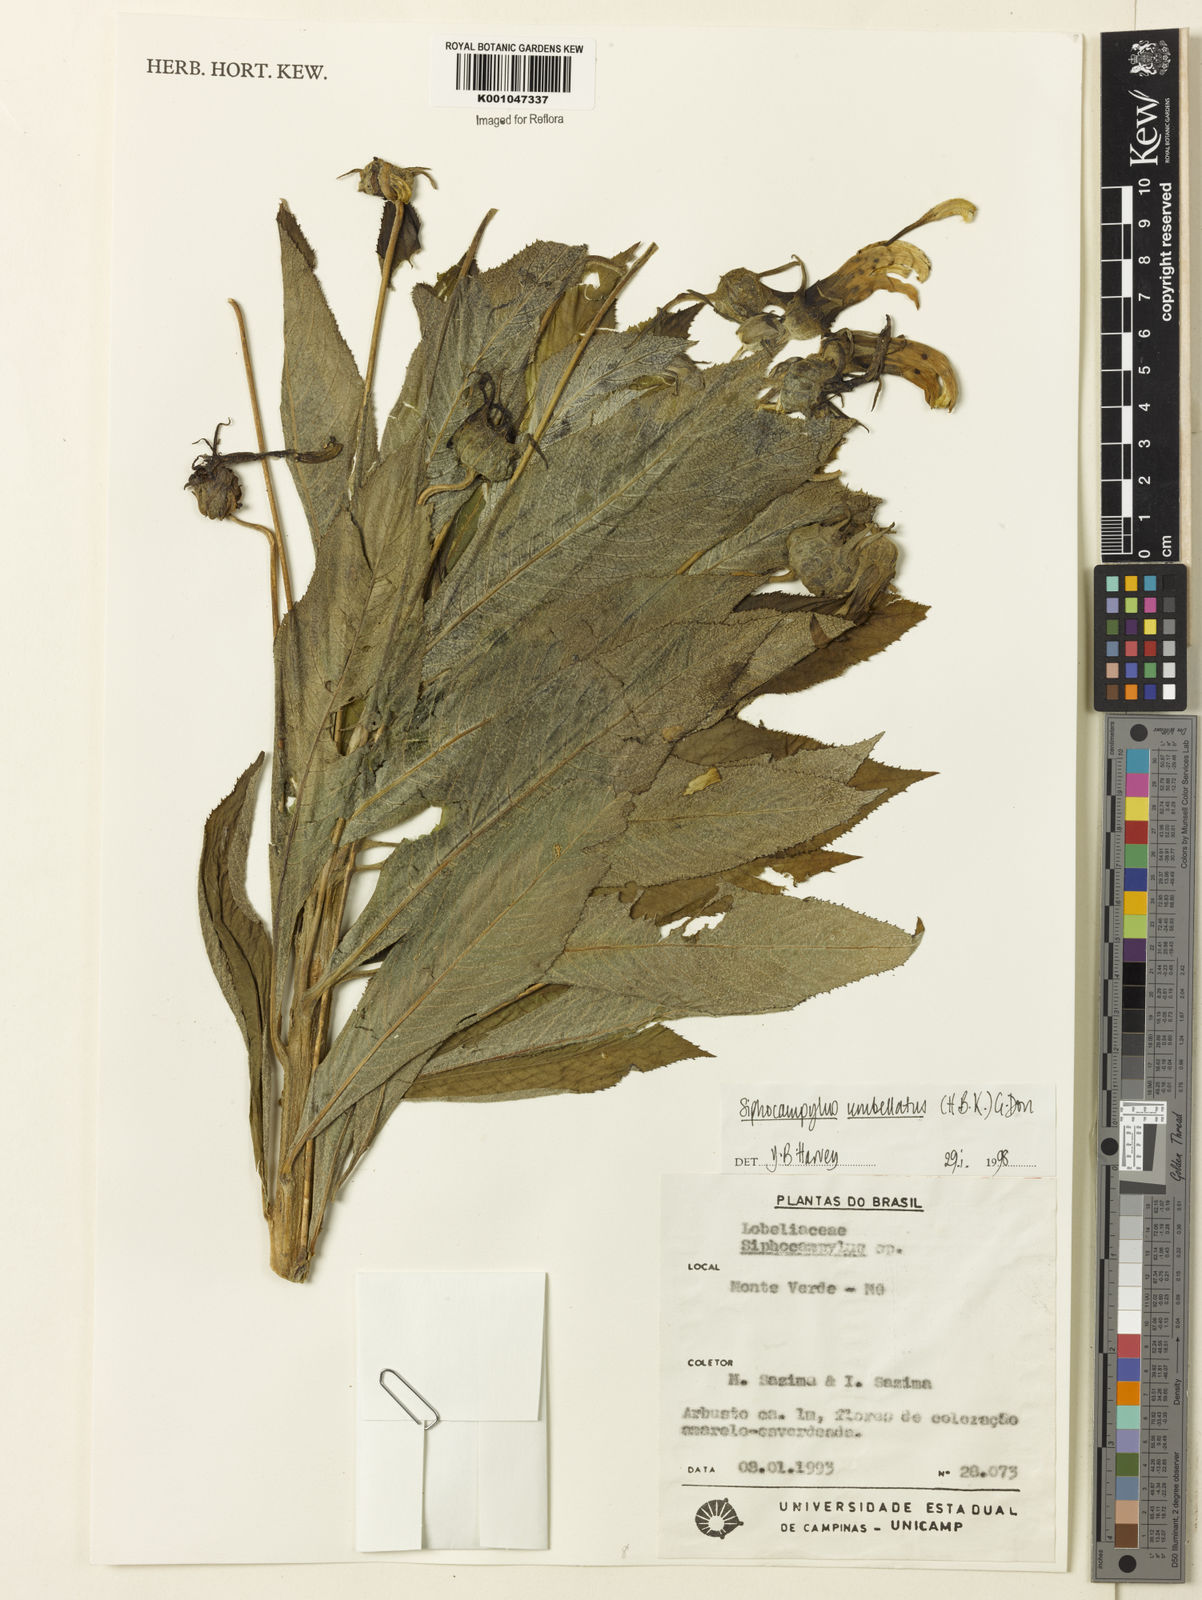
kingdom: Plantae
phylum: Tracheophyta
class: Magnoliopsida
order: Asterales
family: Campanulaceae
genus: Siphocampylus
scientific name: Siphocampylus umbellatus
